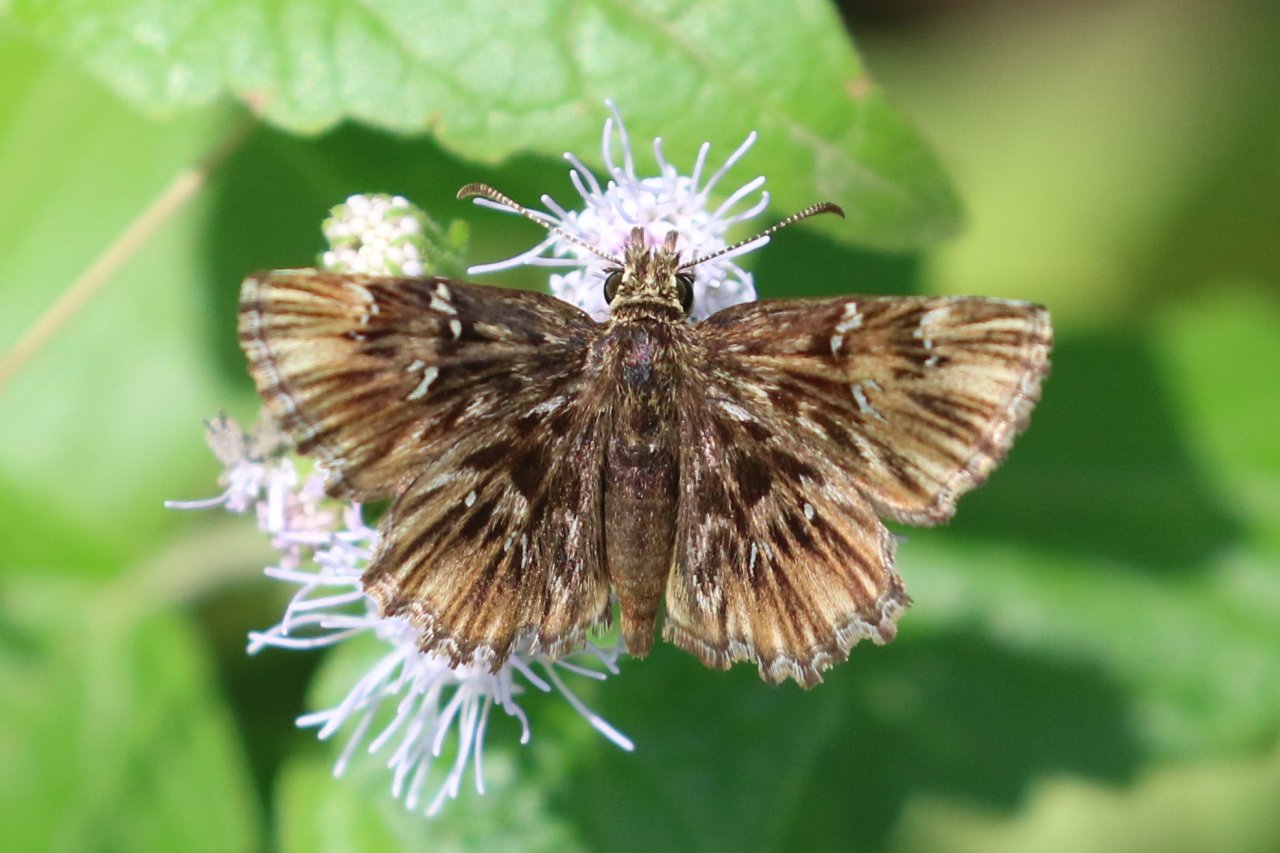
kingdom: Animalia
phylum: Arthropoda
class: Insecta
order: Lepidoptera
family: Hesperiidae
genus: Celotes
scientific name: Celotes nessus
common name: Common Streaky-Skipper
